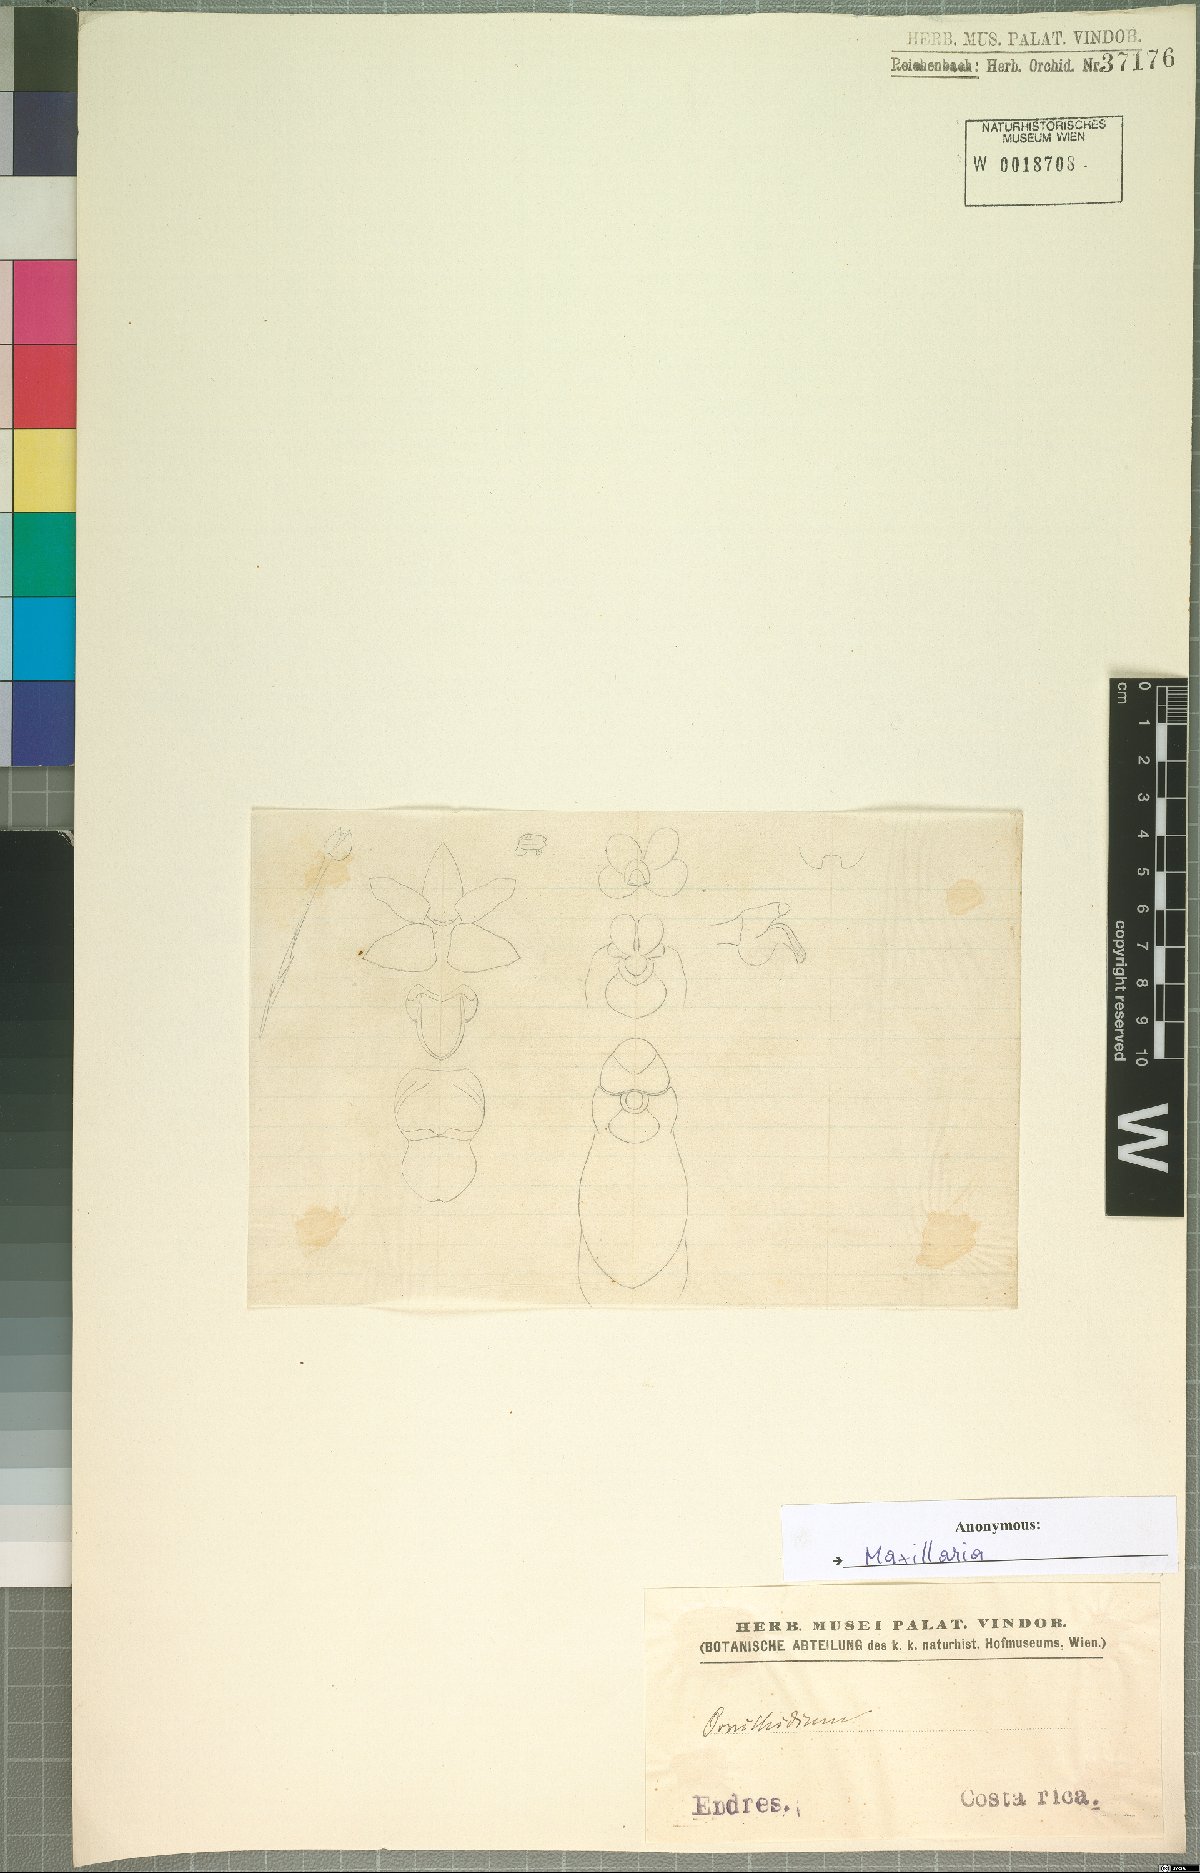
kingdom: Plantae
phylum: Tracheophyta
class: Liliopsida
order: Asparagales
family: Orchidaceae
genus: Maxillaria
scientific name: Maxillaria
